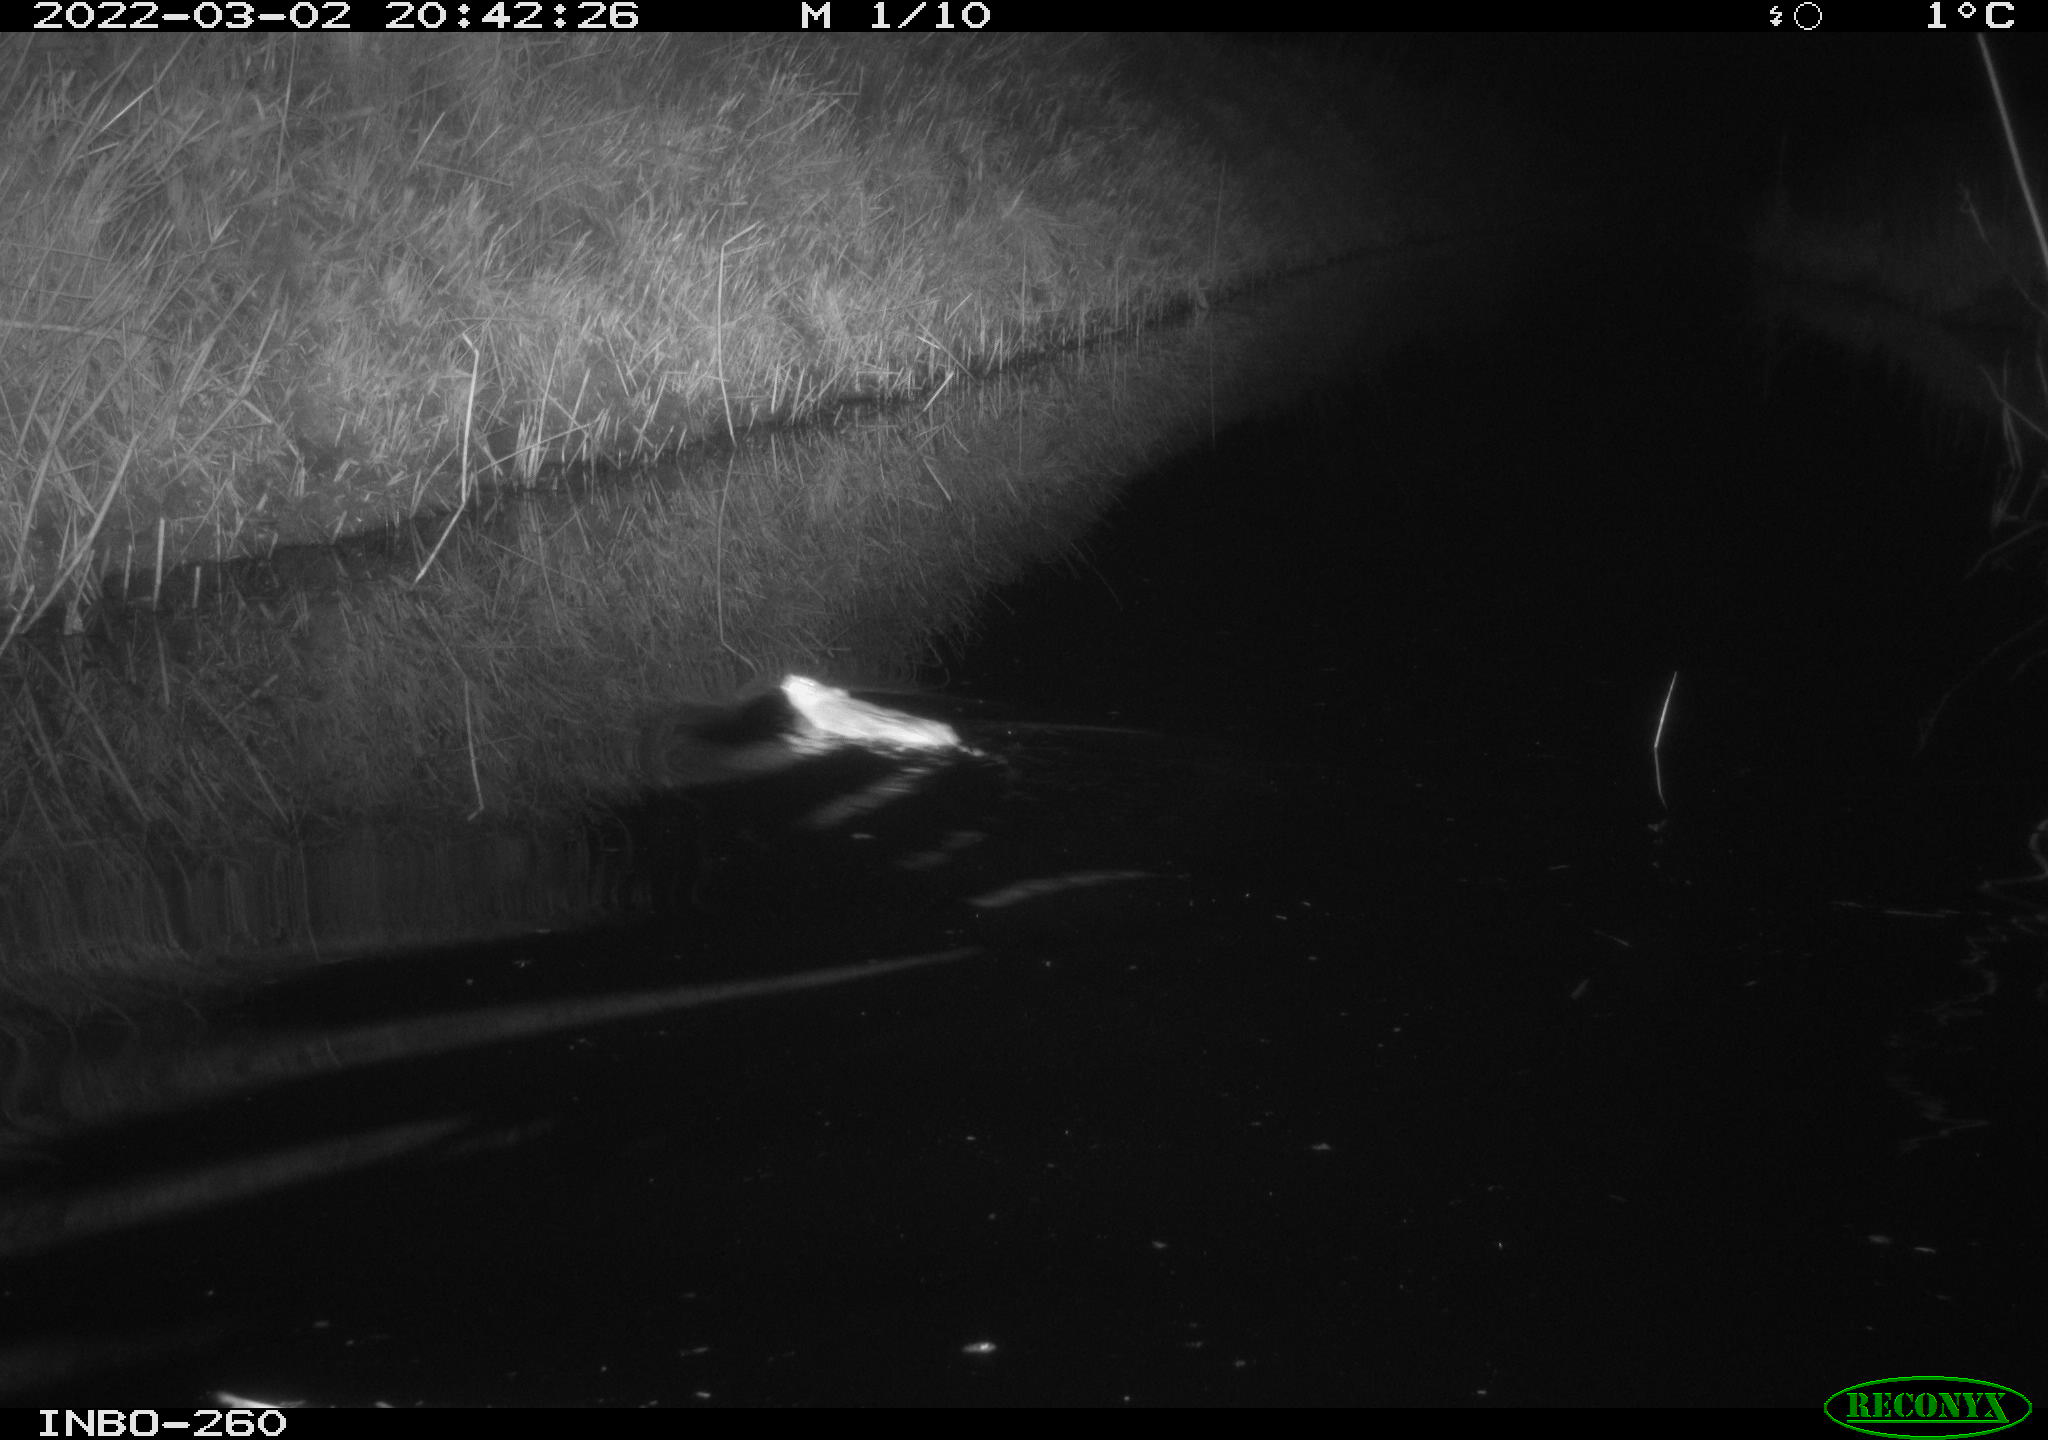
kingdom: Animalia
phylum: Chordata
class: Mammalia
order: Rodentia
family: Muridae
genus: Rattus
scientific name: Rattus norvegicus
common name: Brown rat
